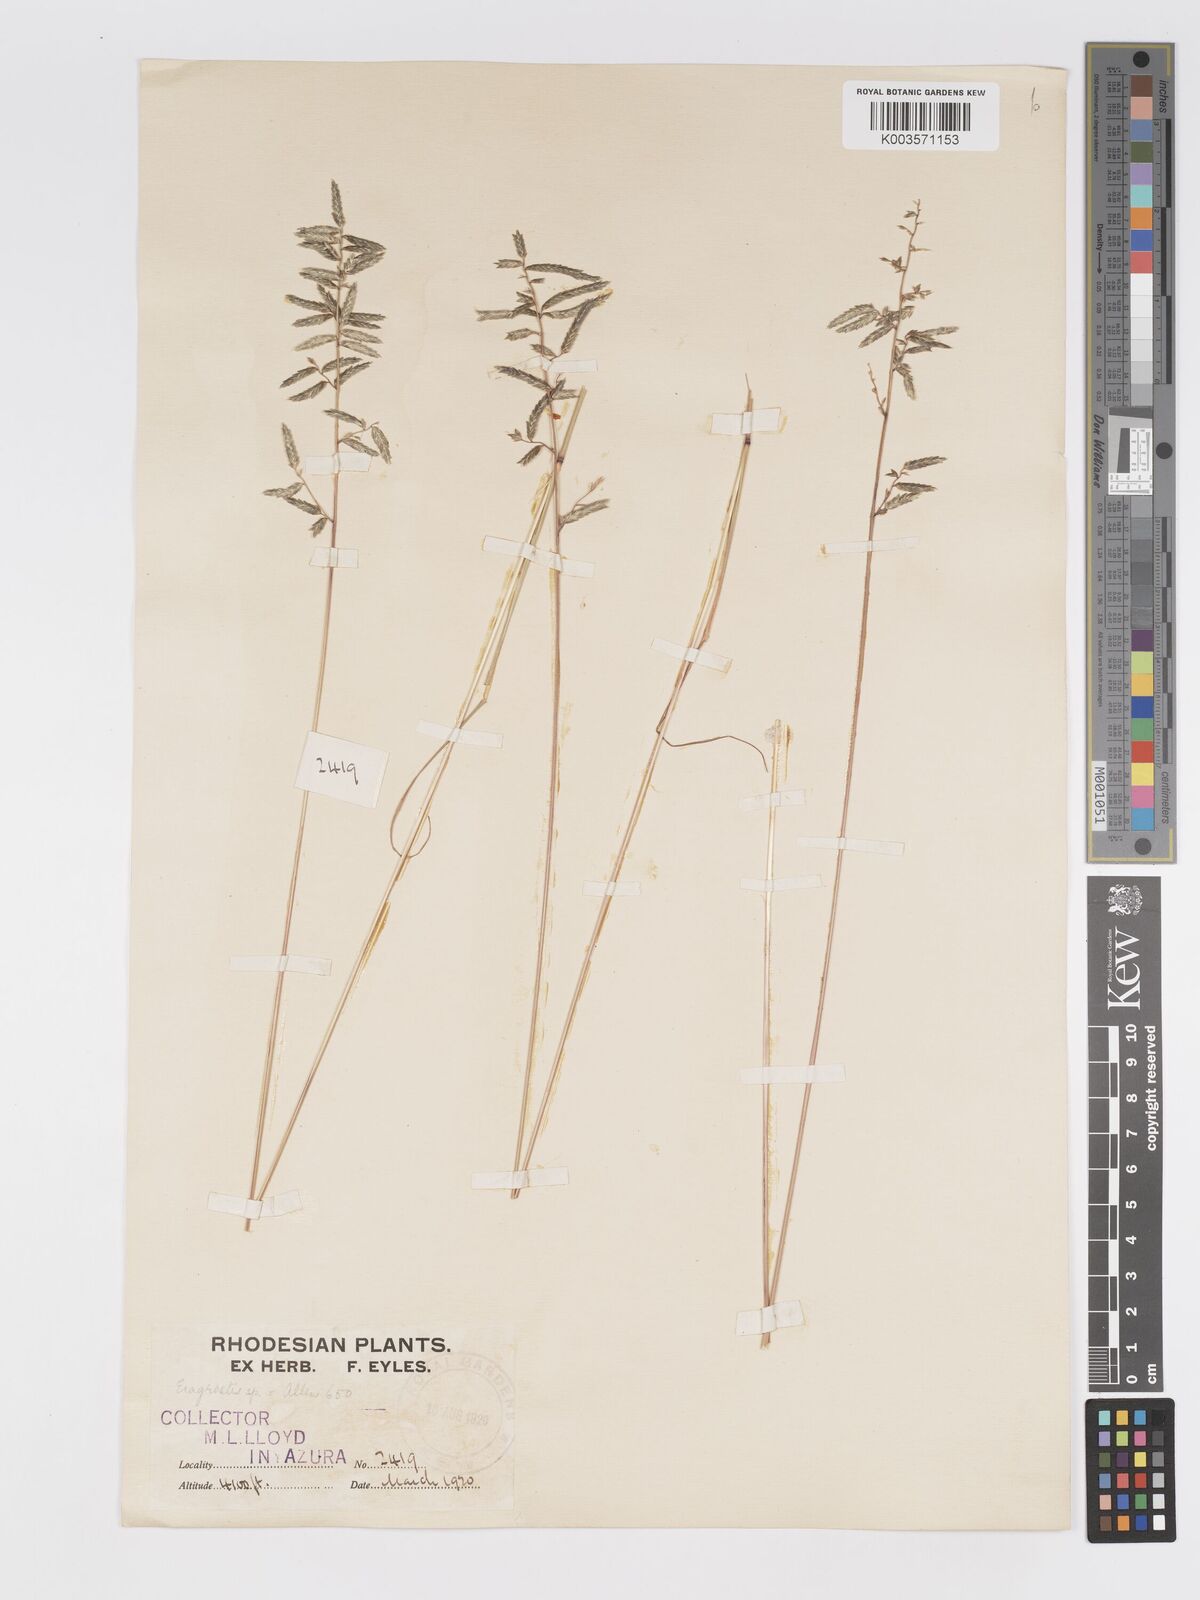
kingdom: Plantae
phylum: Tracheophyta
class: Liliopsida
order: Poales
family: Poaceae
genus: Eragrostis
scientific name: Eragrostis nindensis
